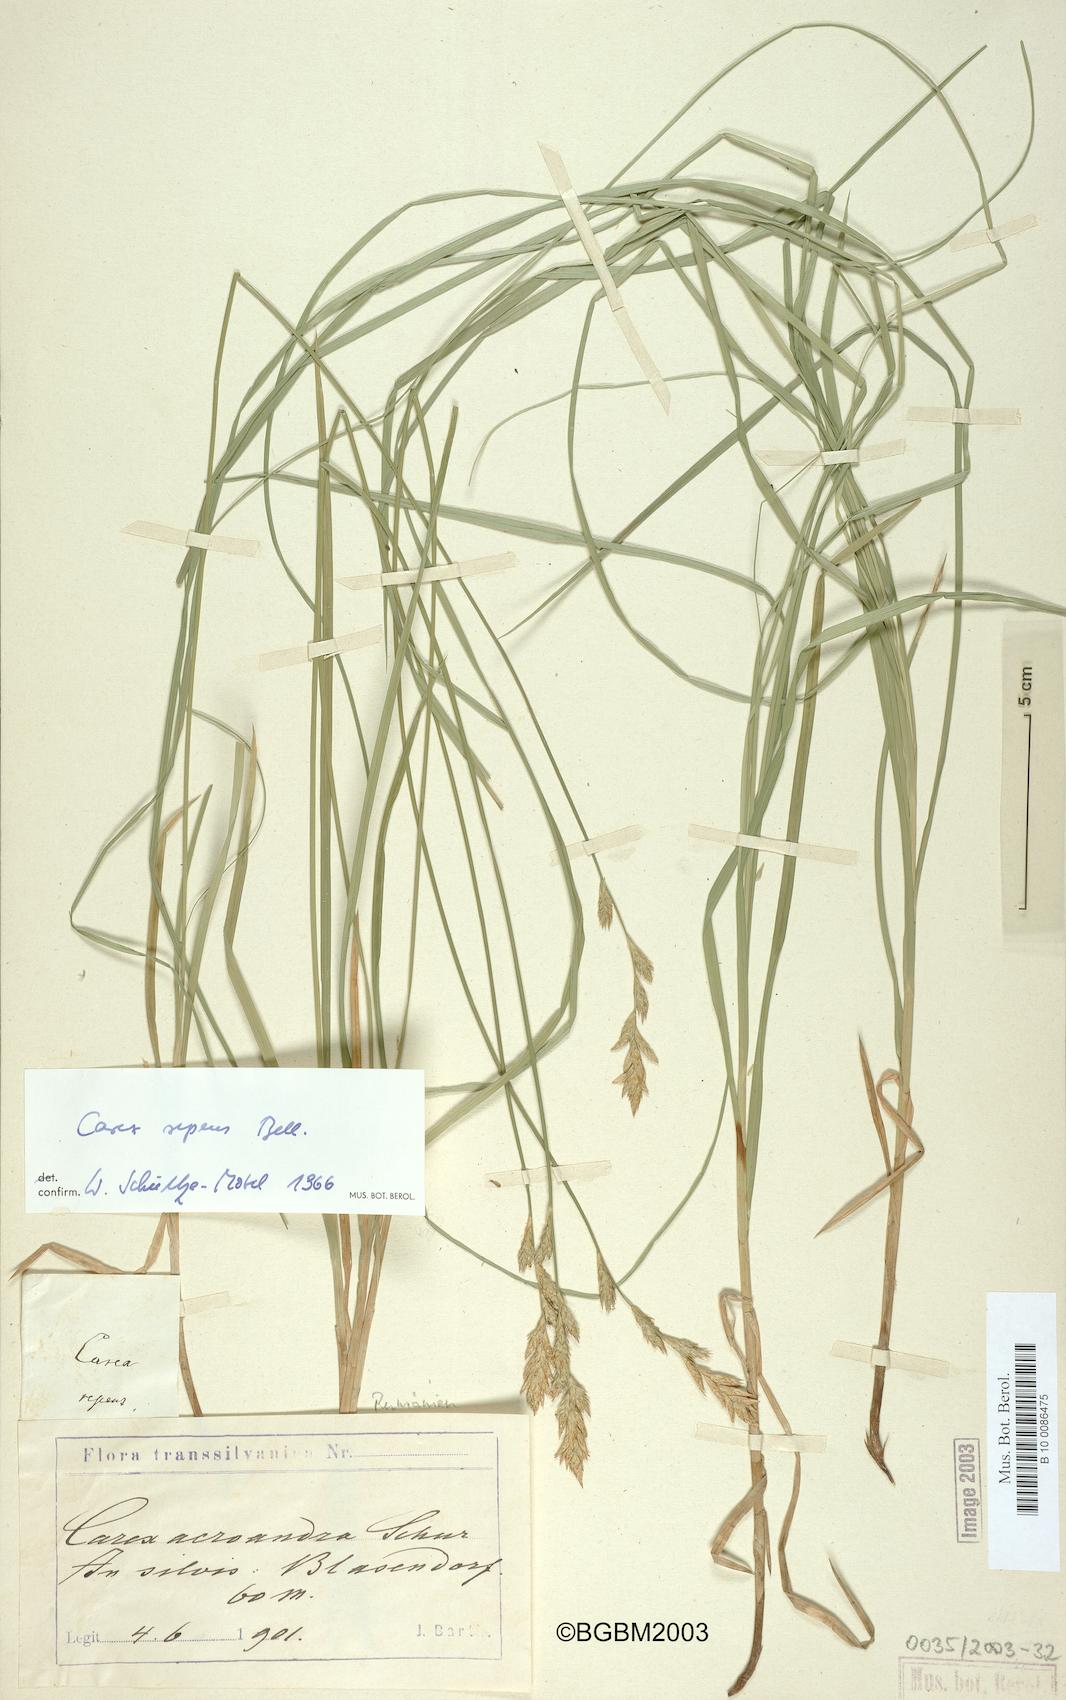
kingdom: Plantae
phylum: Tracheophyta
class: Liliopsida
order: Poales
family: Cyperaceae
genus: Carex
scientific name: Carex repens
